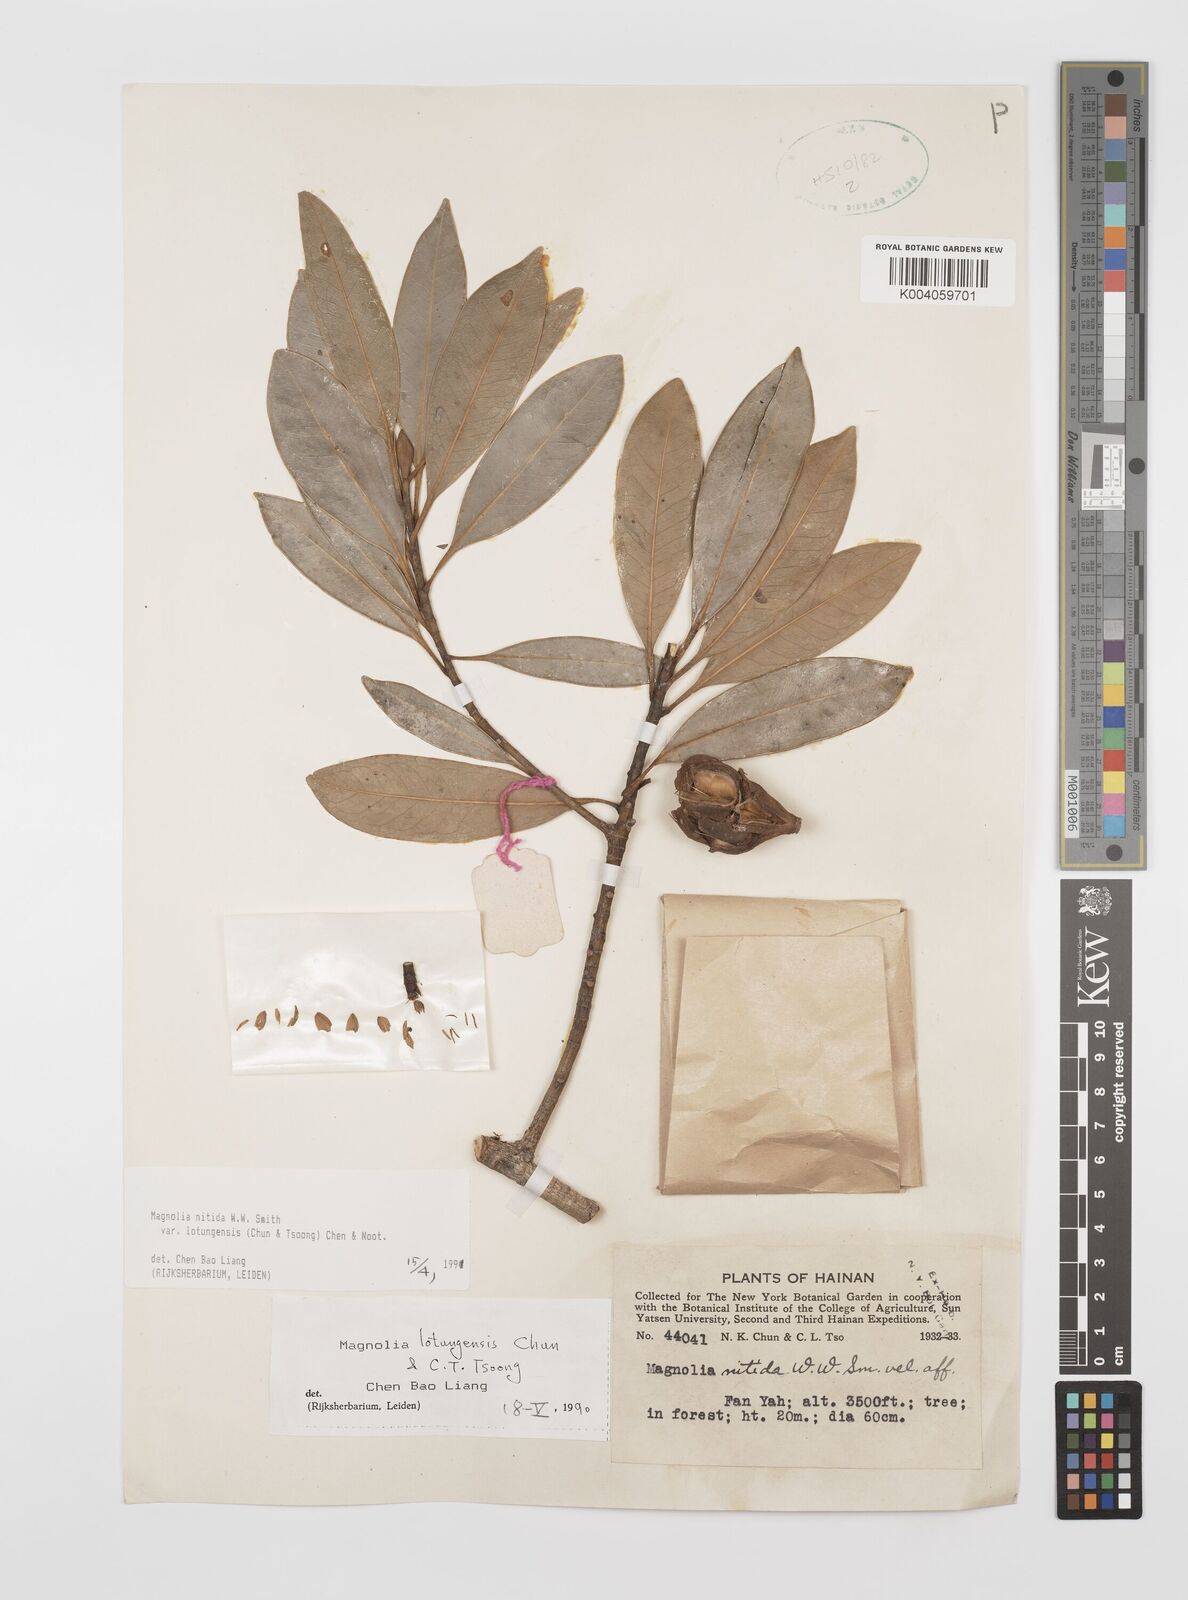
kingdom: Plantae
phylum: Tracheophyta
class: Magnoliopsida
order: Magnoliales
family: Magnoliaceae
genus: Magnolia
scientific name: Magnolia lotungensis
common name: Eastern joy lotustree
